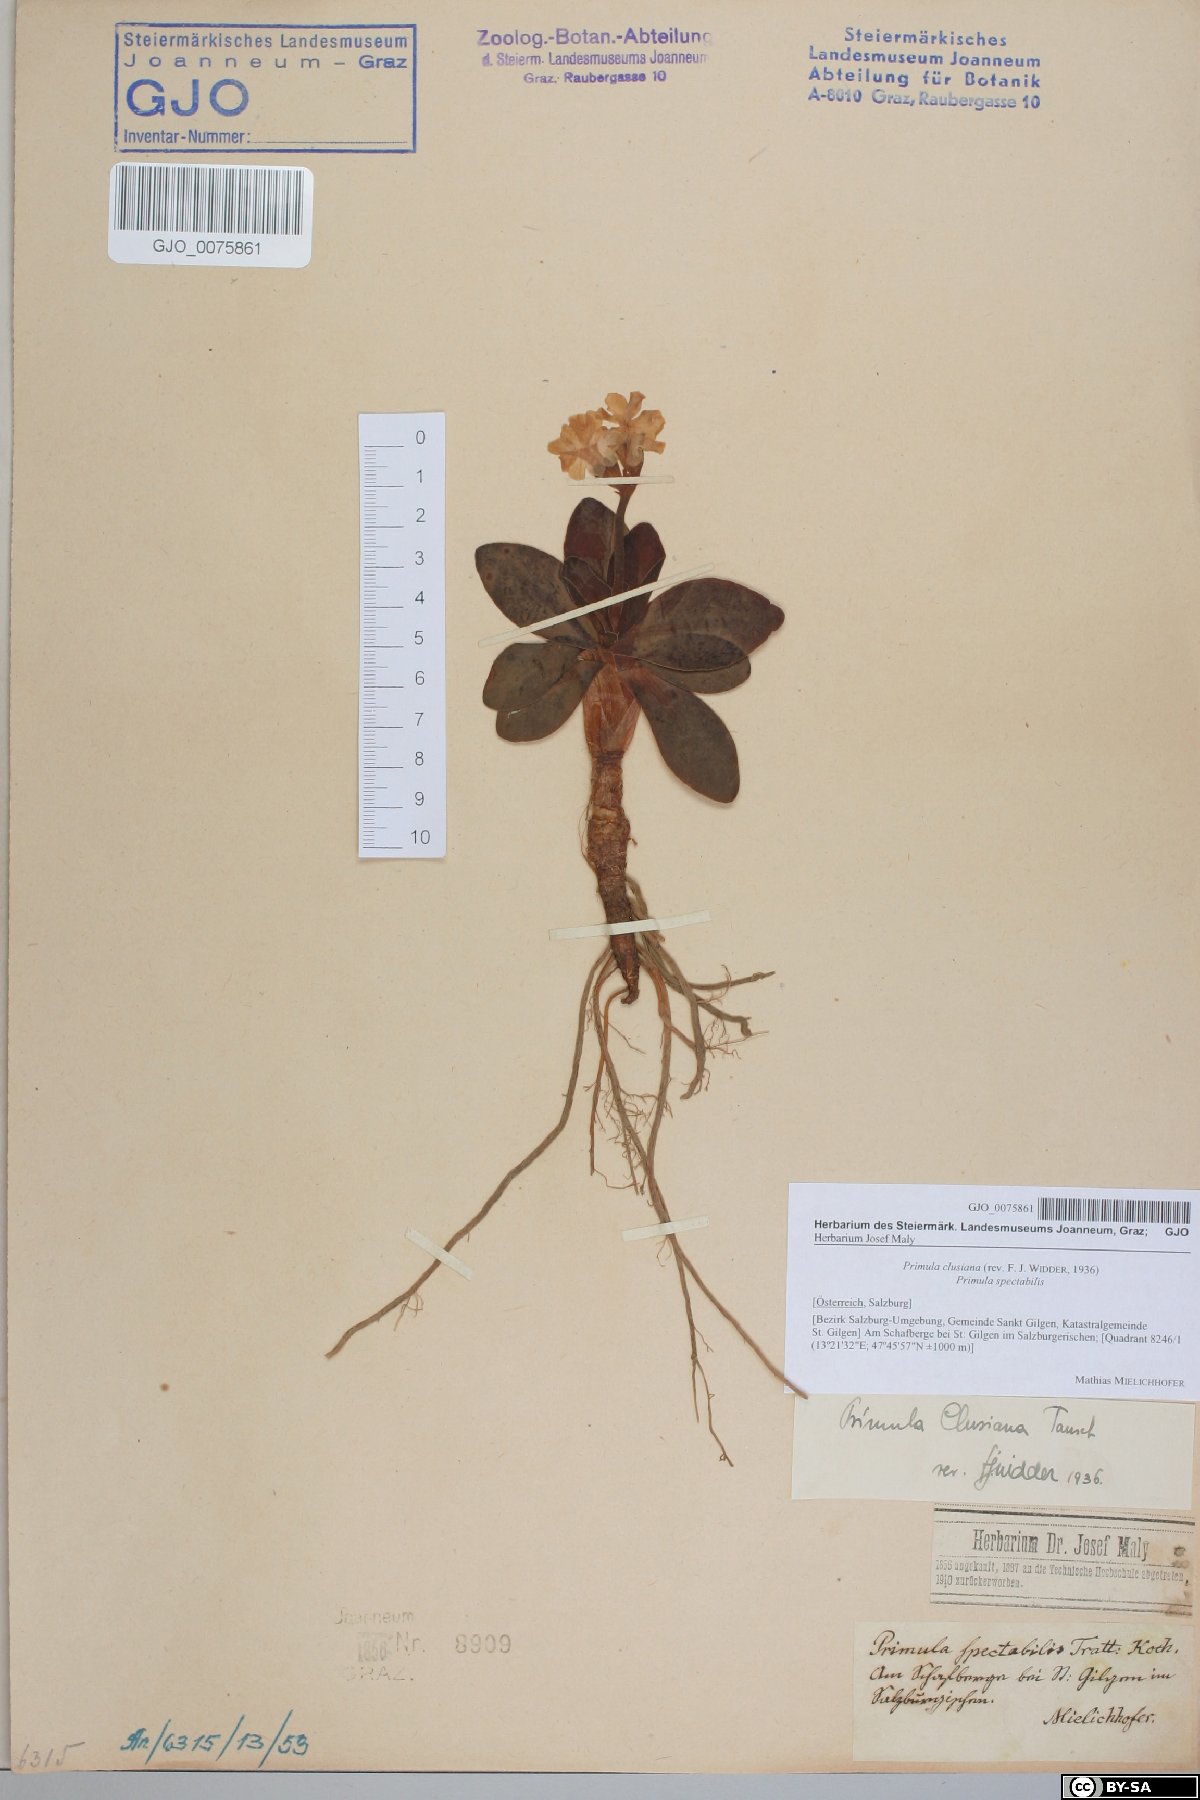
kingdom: Plantae
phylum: Tracheophyta
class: Magnoliopsida
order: Ericales
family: Primulaceae
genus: Primula
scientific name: Primula clusiana
